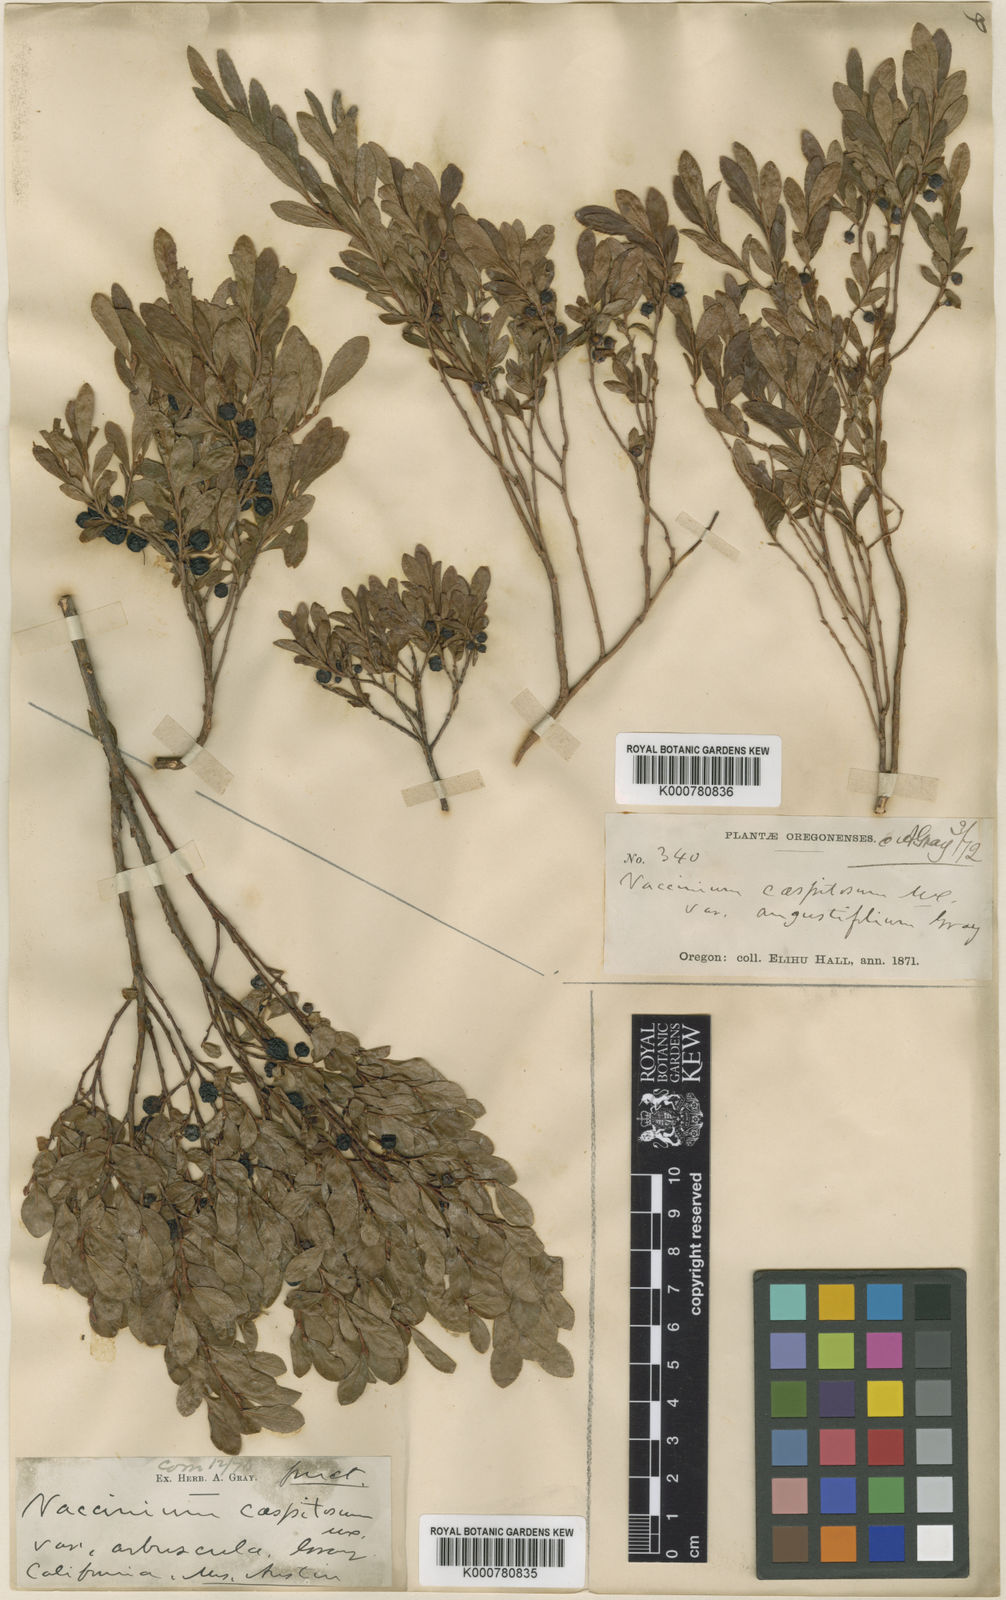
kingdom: Plantae
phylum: Tracheophyta
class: Magnoliopsida
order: Ericales
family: Ericaceae
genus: Vaccinium
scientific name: Vaccinium
